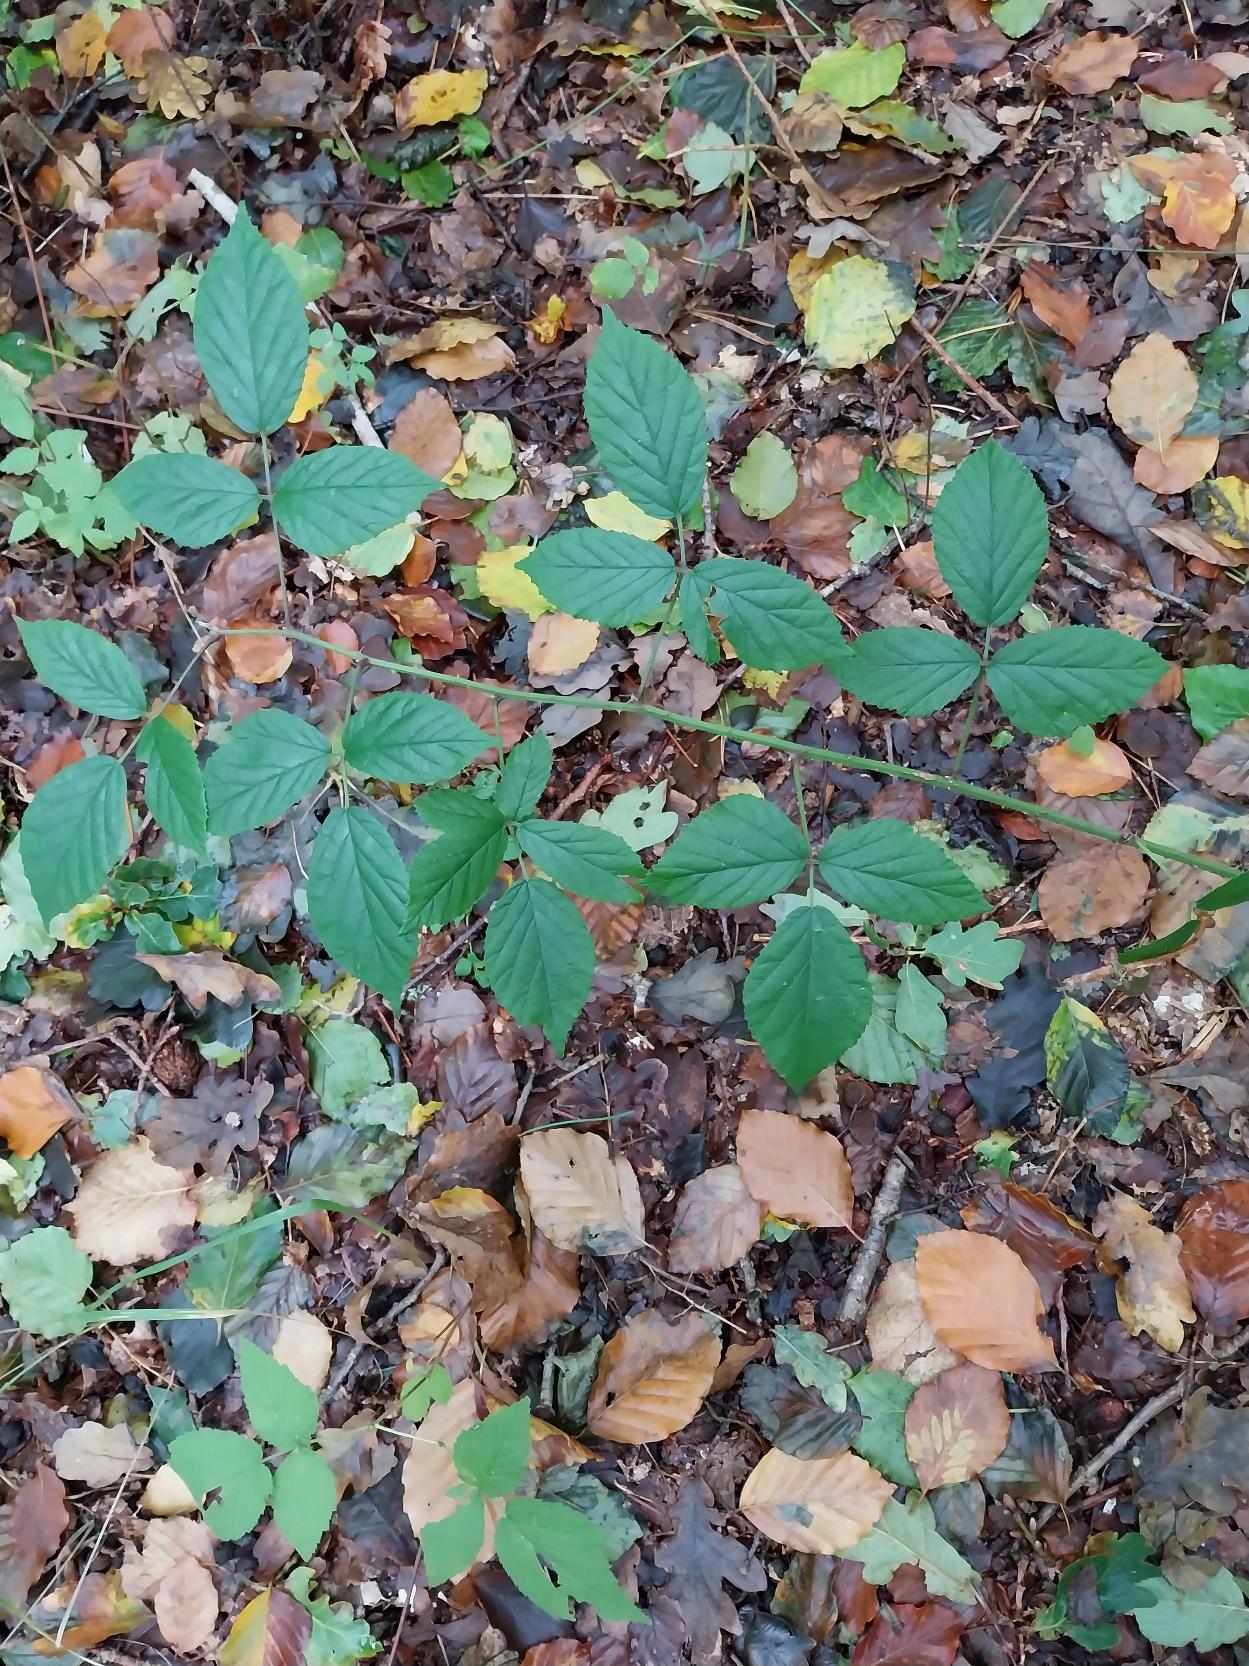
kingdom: Plantae
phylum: Tracheophyta
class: Magnoliopsida
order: Rosales
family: Rosaceae
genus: Rubus
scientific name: Rubus radula
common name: Rasperu brombær
